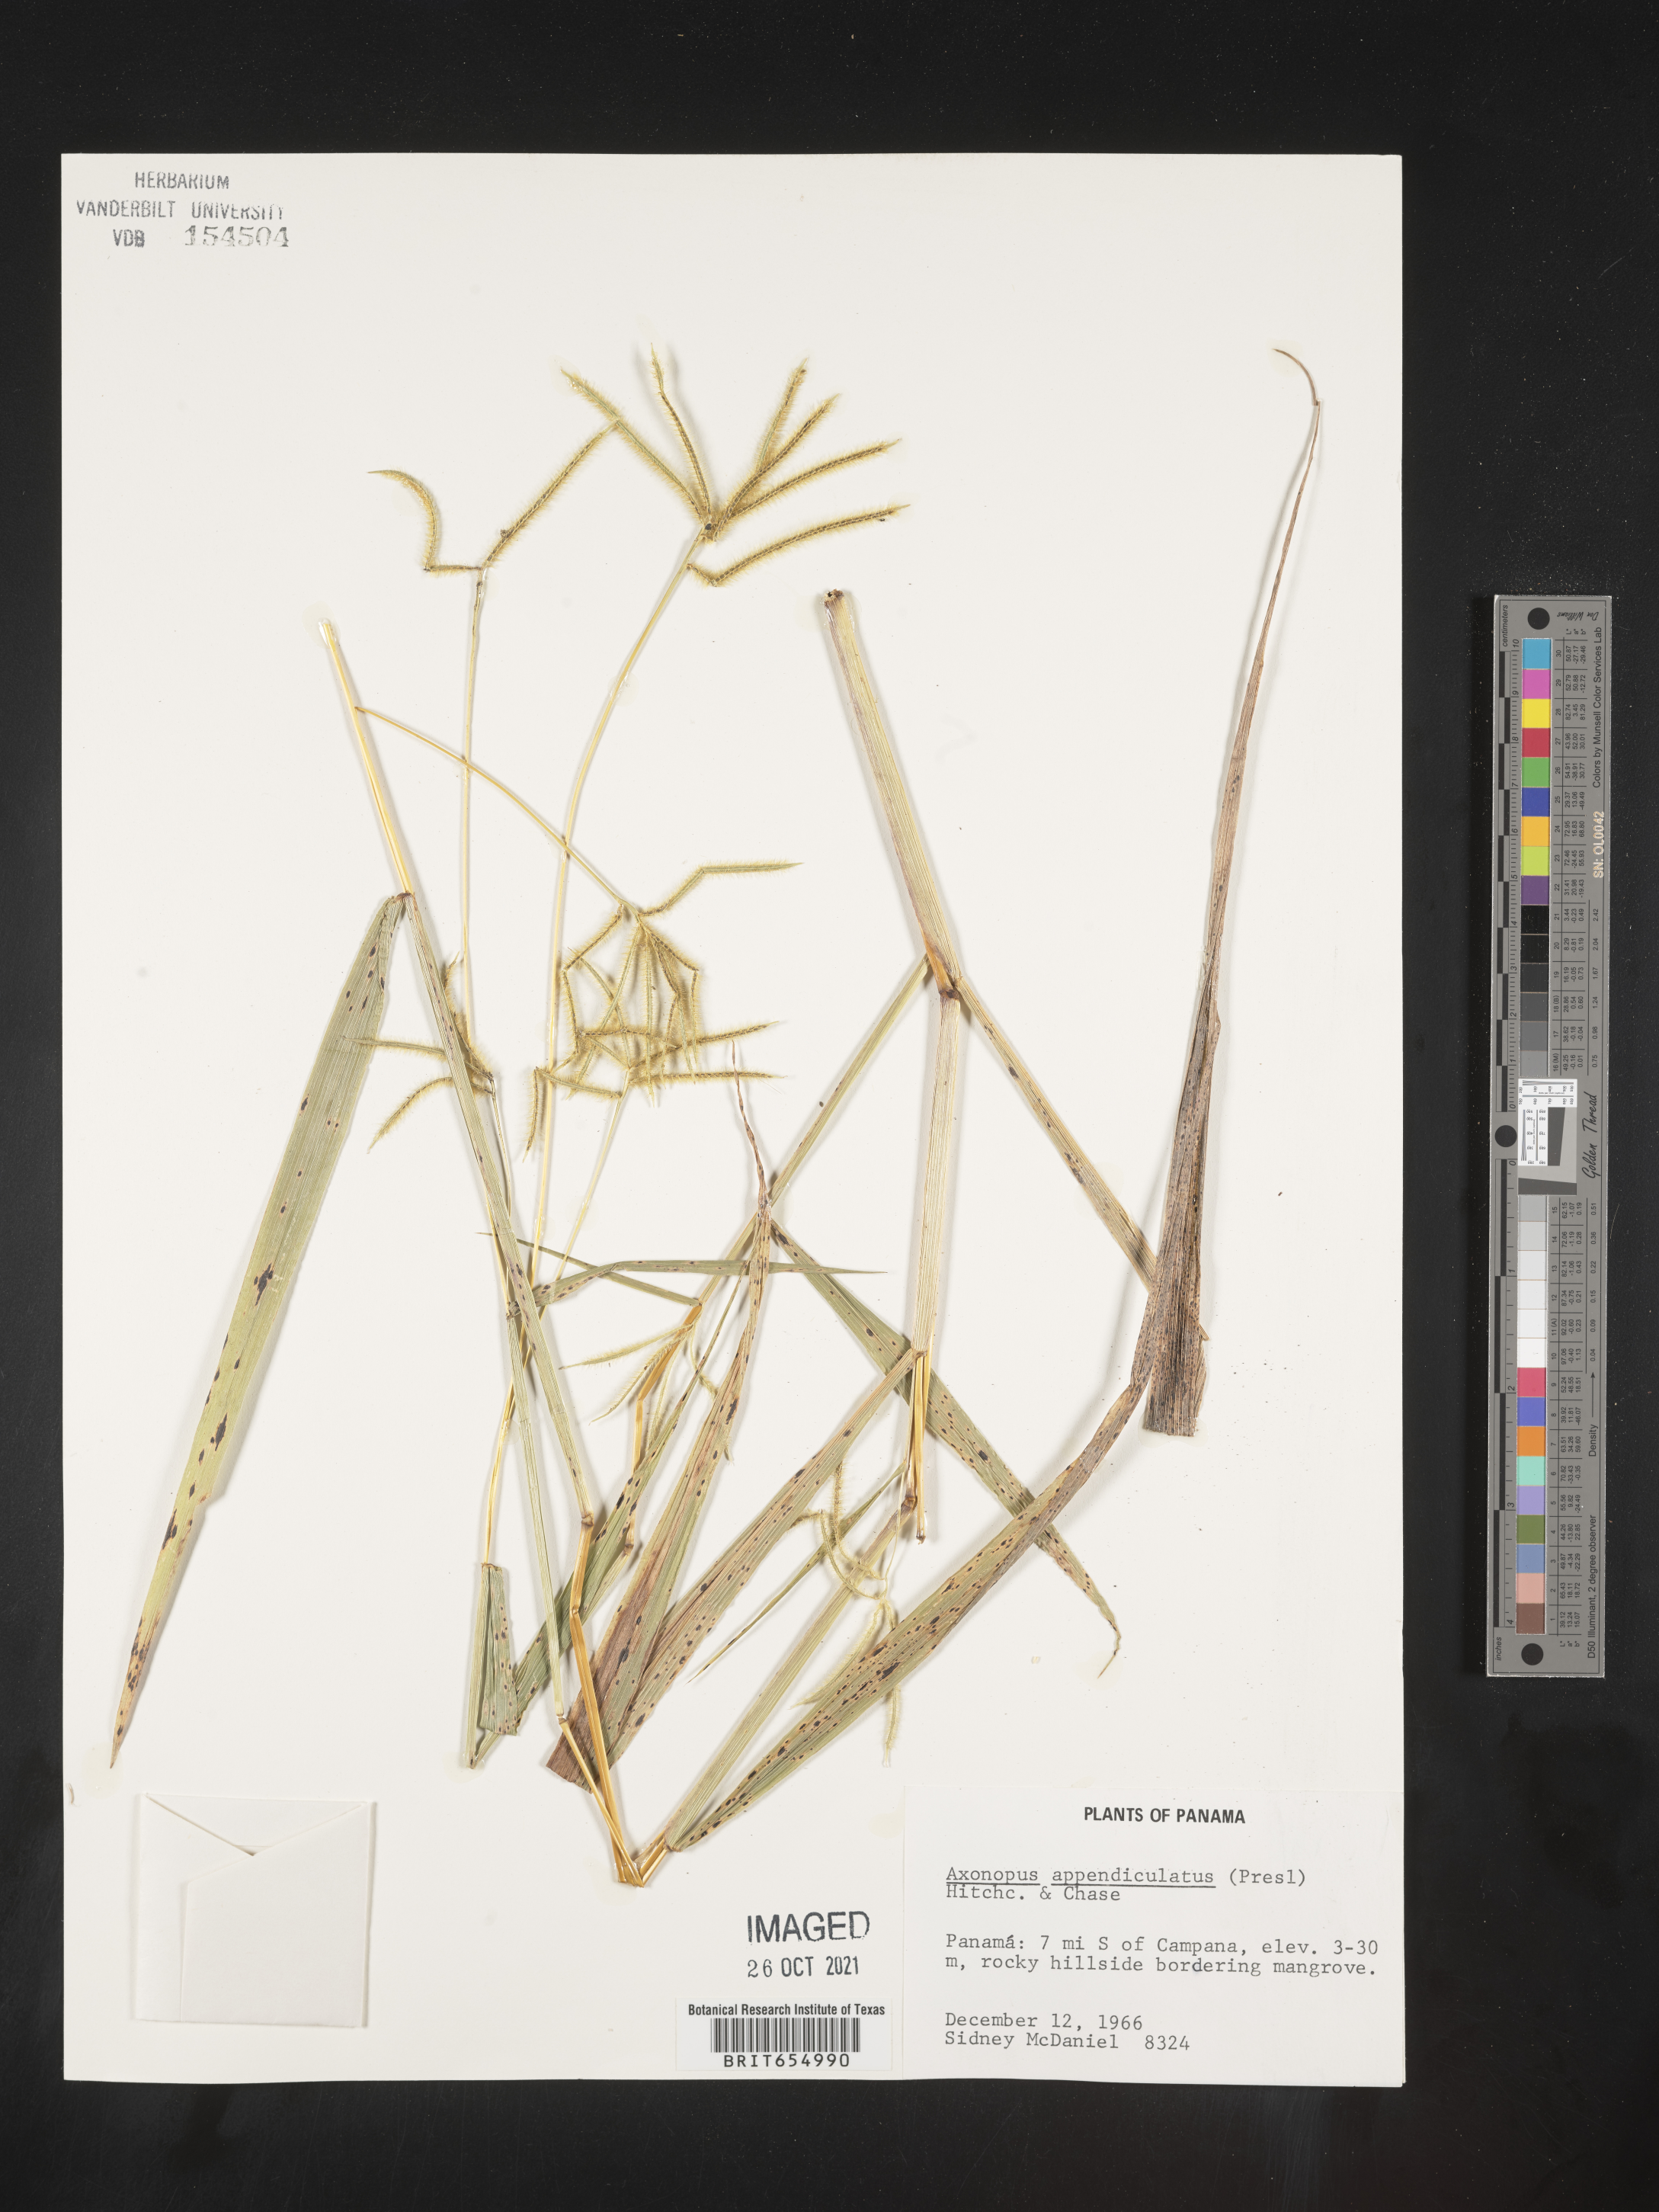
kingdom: Plantae
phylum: Tracheophyta
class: Liliopsida
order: Poales
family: Poaceae
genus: Axonopus
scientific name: Axonopus
